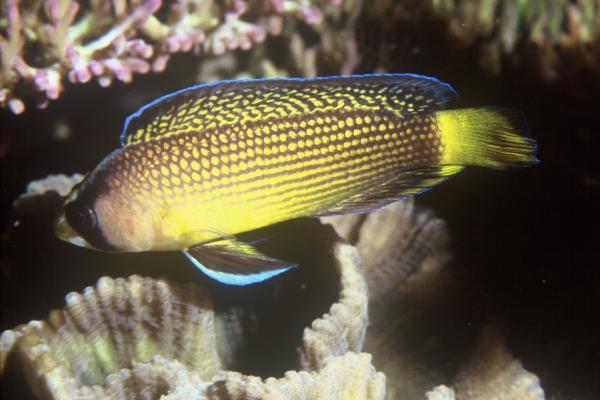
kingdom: Animalia
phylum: Chordata
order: Perciformes
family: Pseudochromidae
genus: Manonichthys
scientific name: Manonichthys splendens
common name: Splendid dottyback
